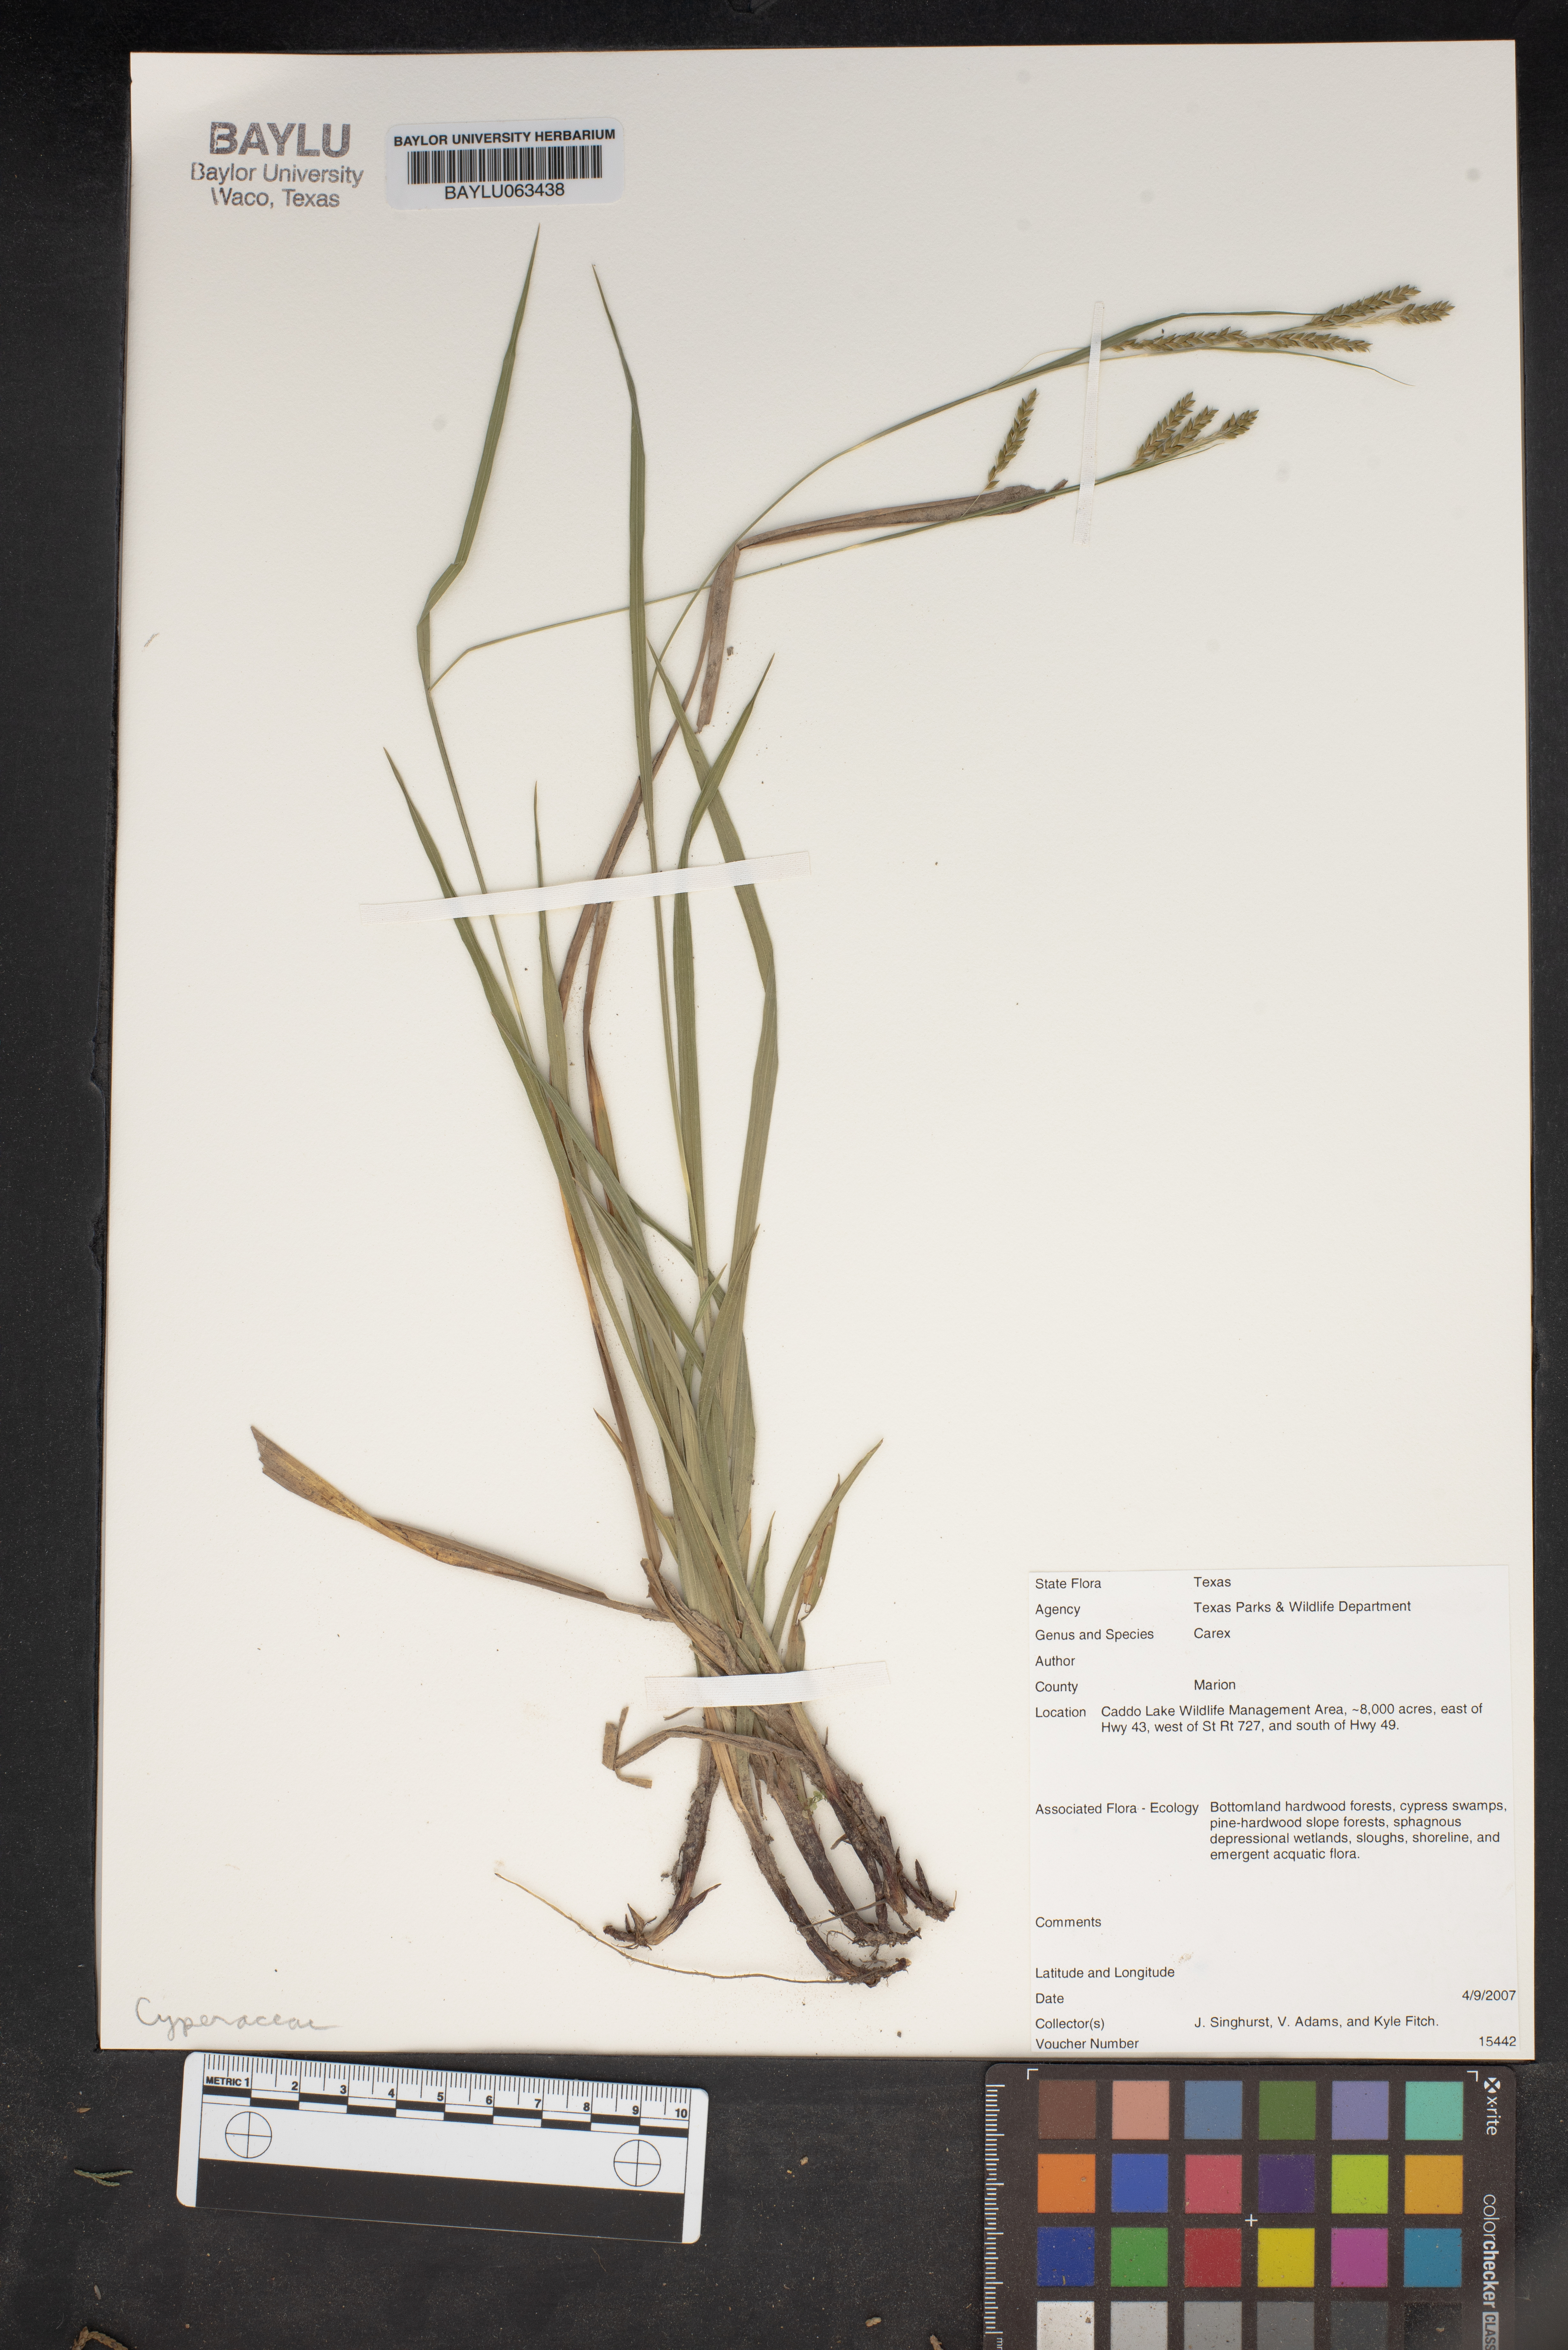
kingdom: Plantae
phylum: Tracheophyta
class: Liliopsida
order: Poales
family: Cyperaceae
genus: Carex
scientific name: Carex
